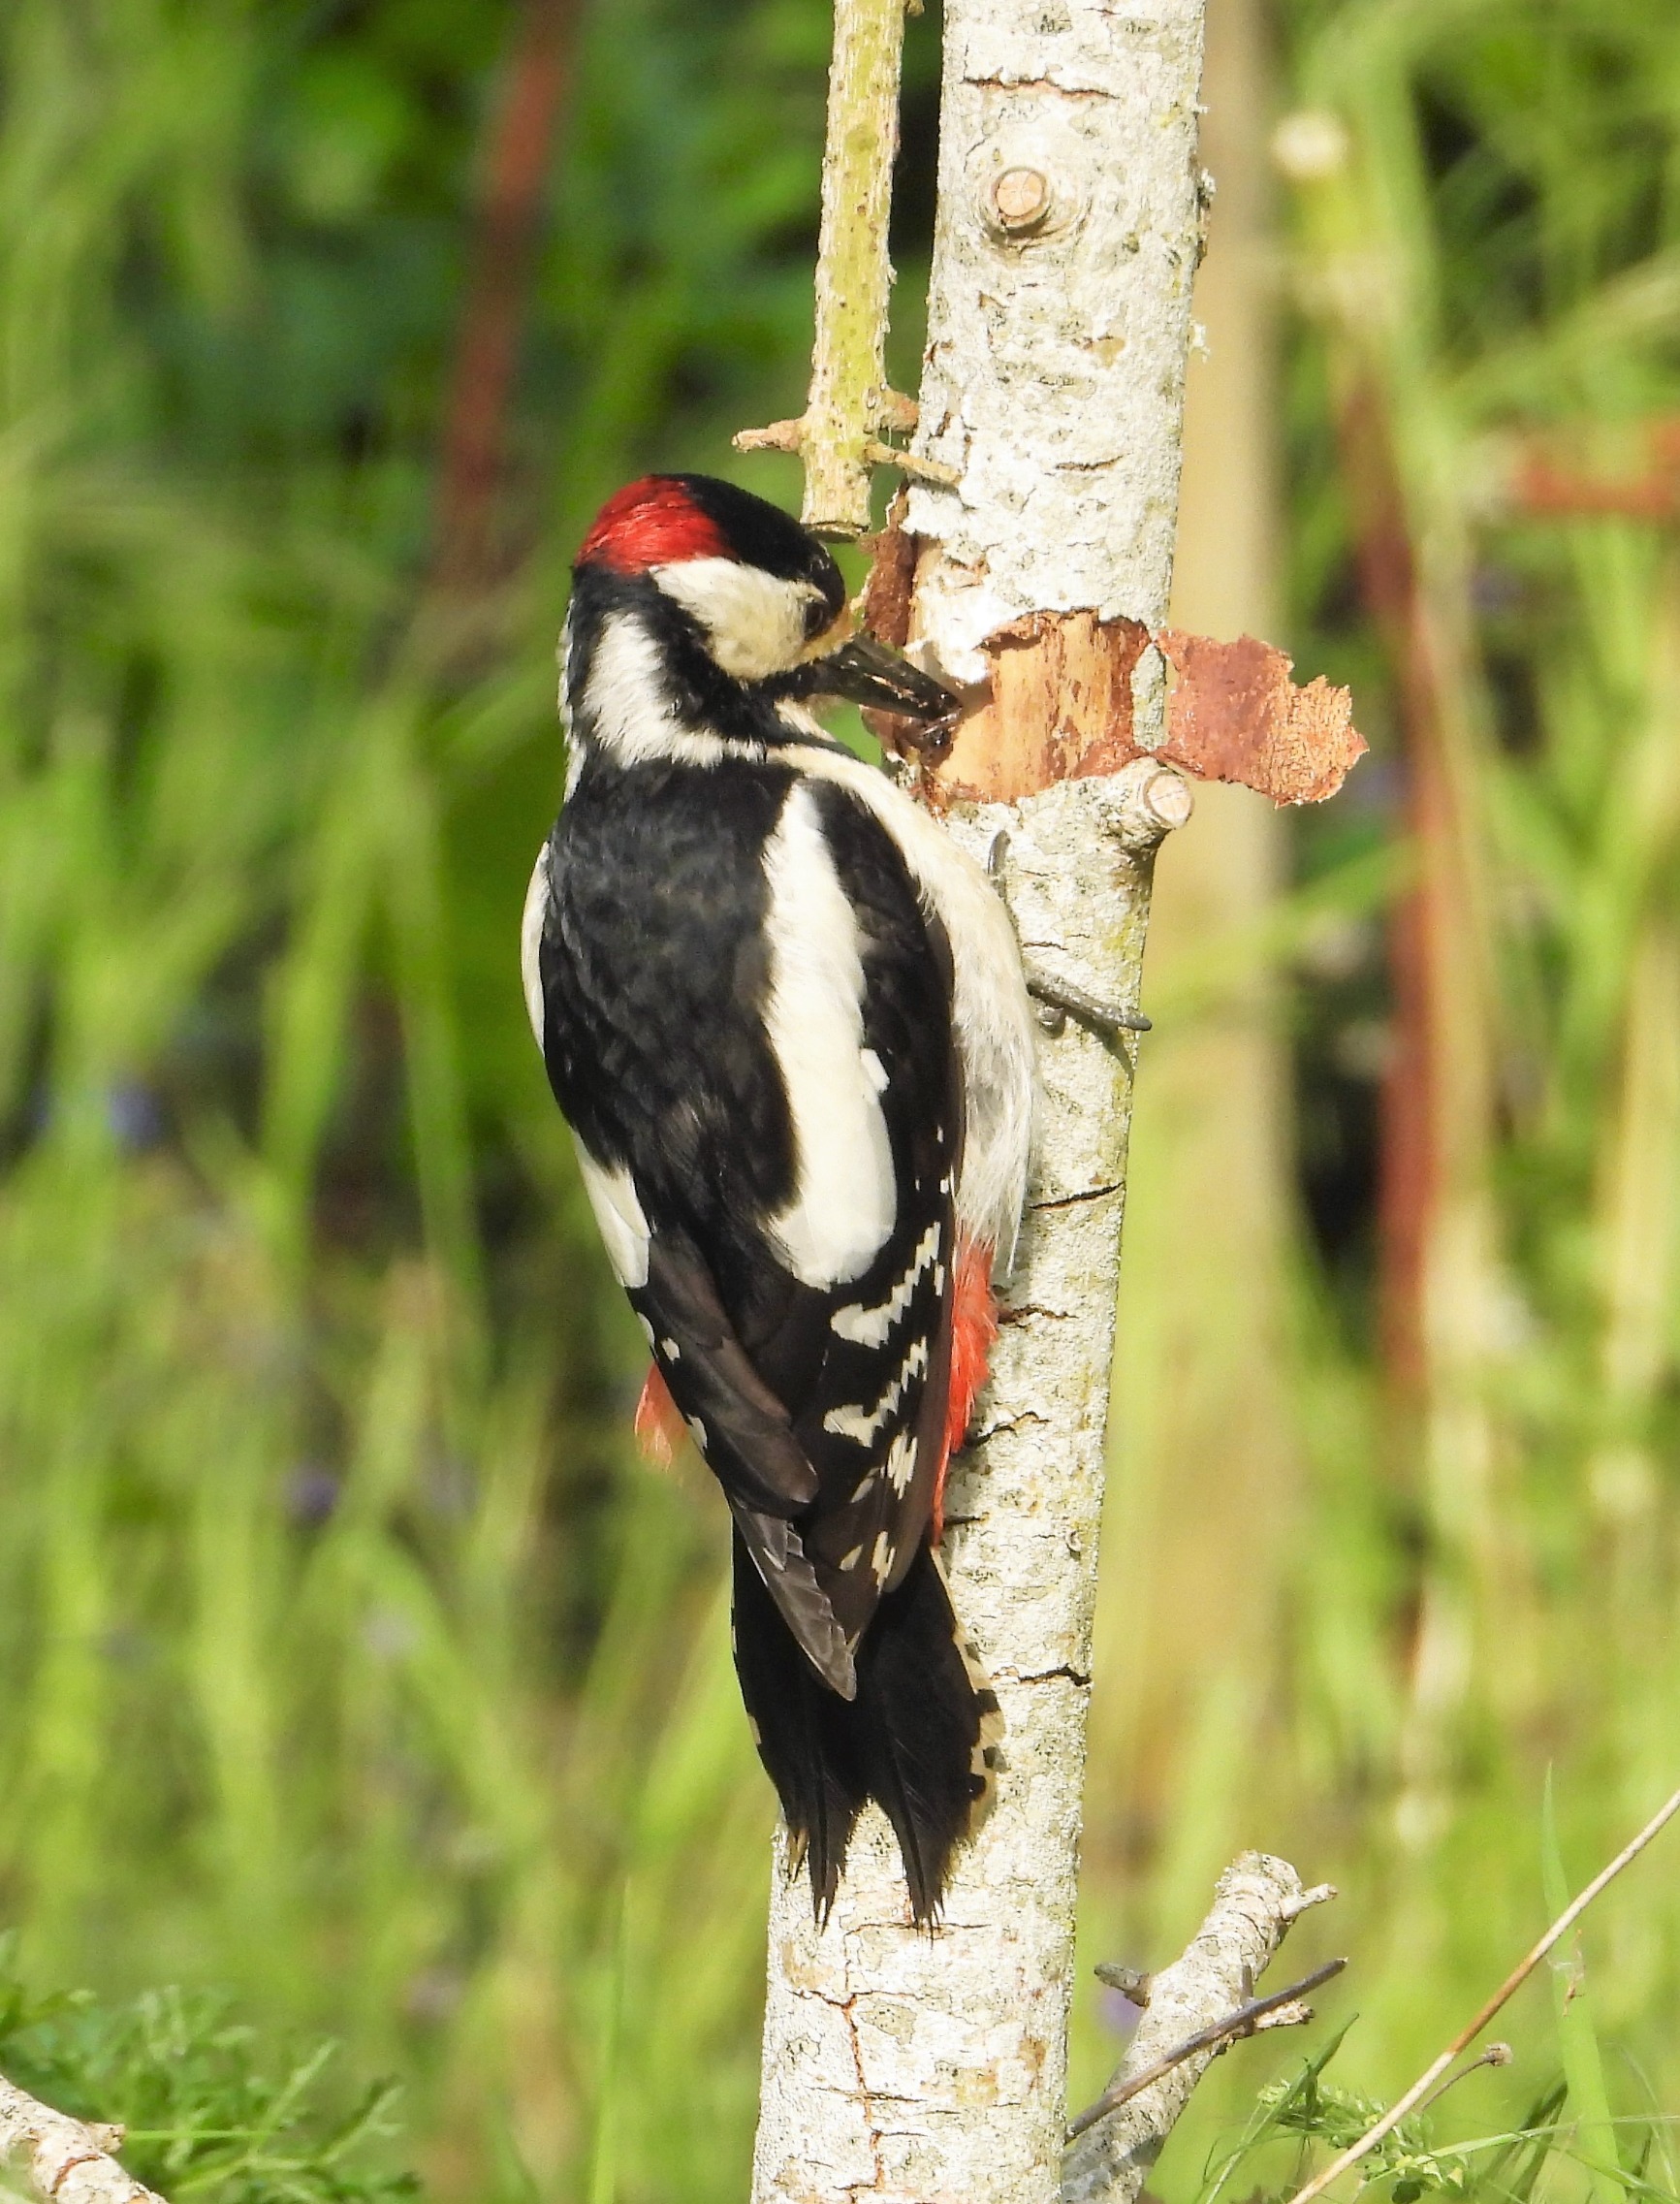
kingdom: Animalia
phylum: Chordata
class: Aves
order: Piciformes
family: Picidae
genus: Dendrocopos
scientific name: Dendrocopos major
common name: Stor flagspætte
